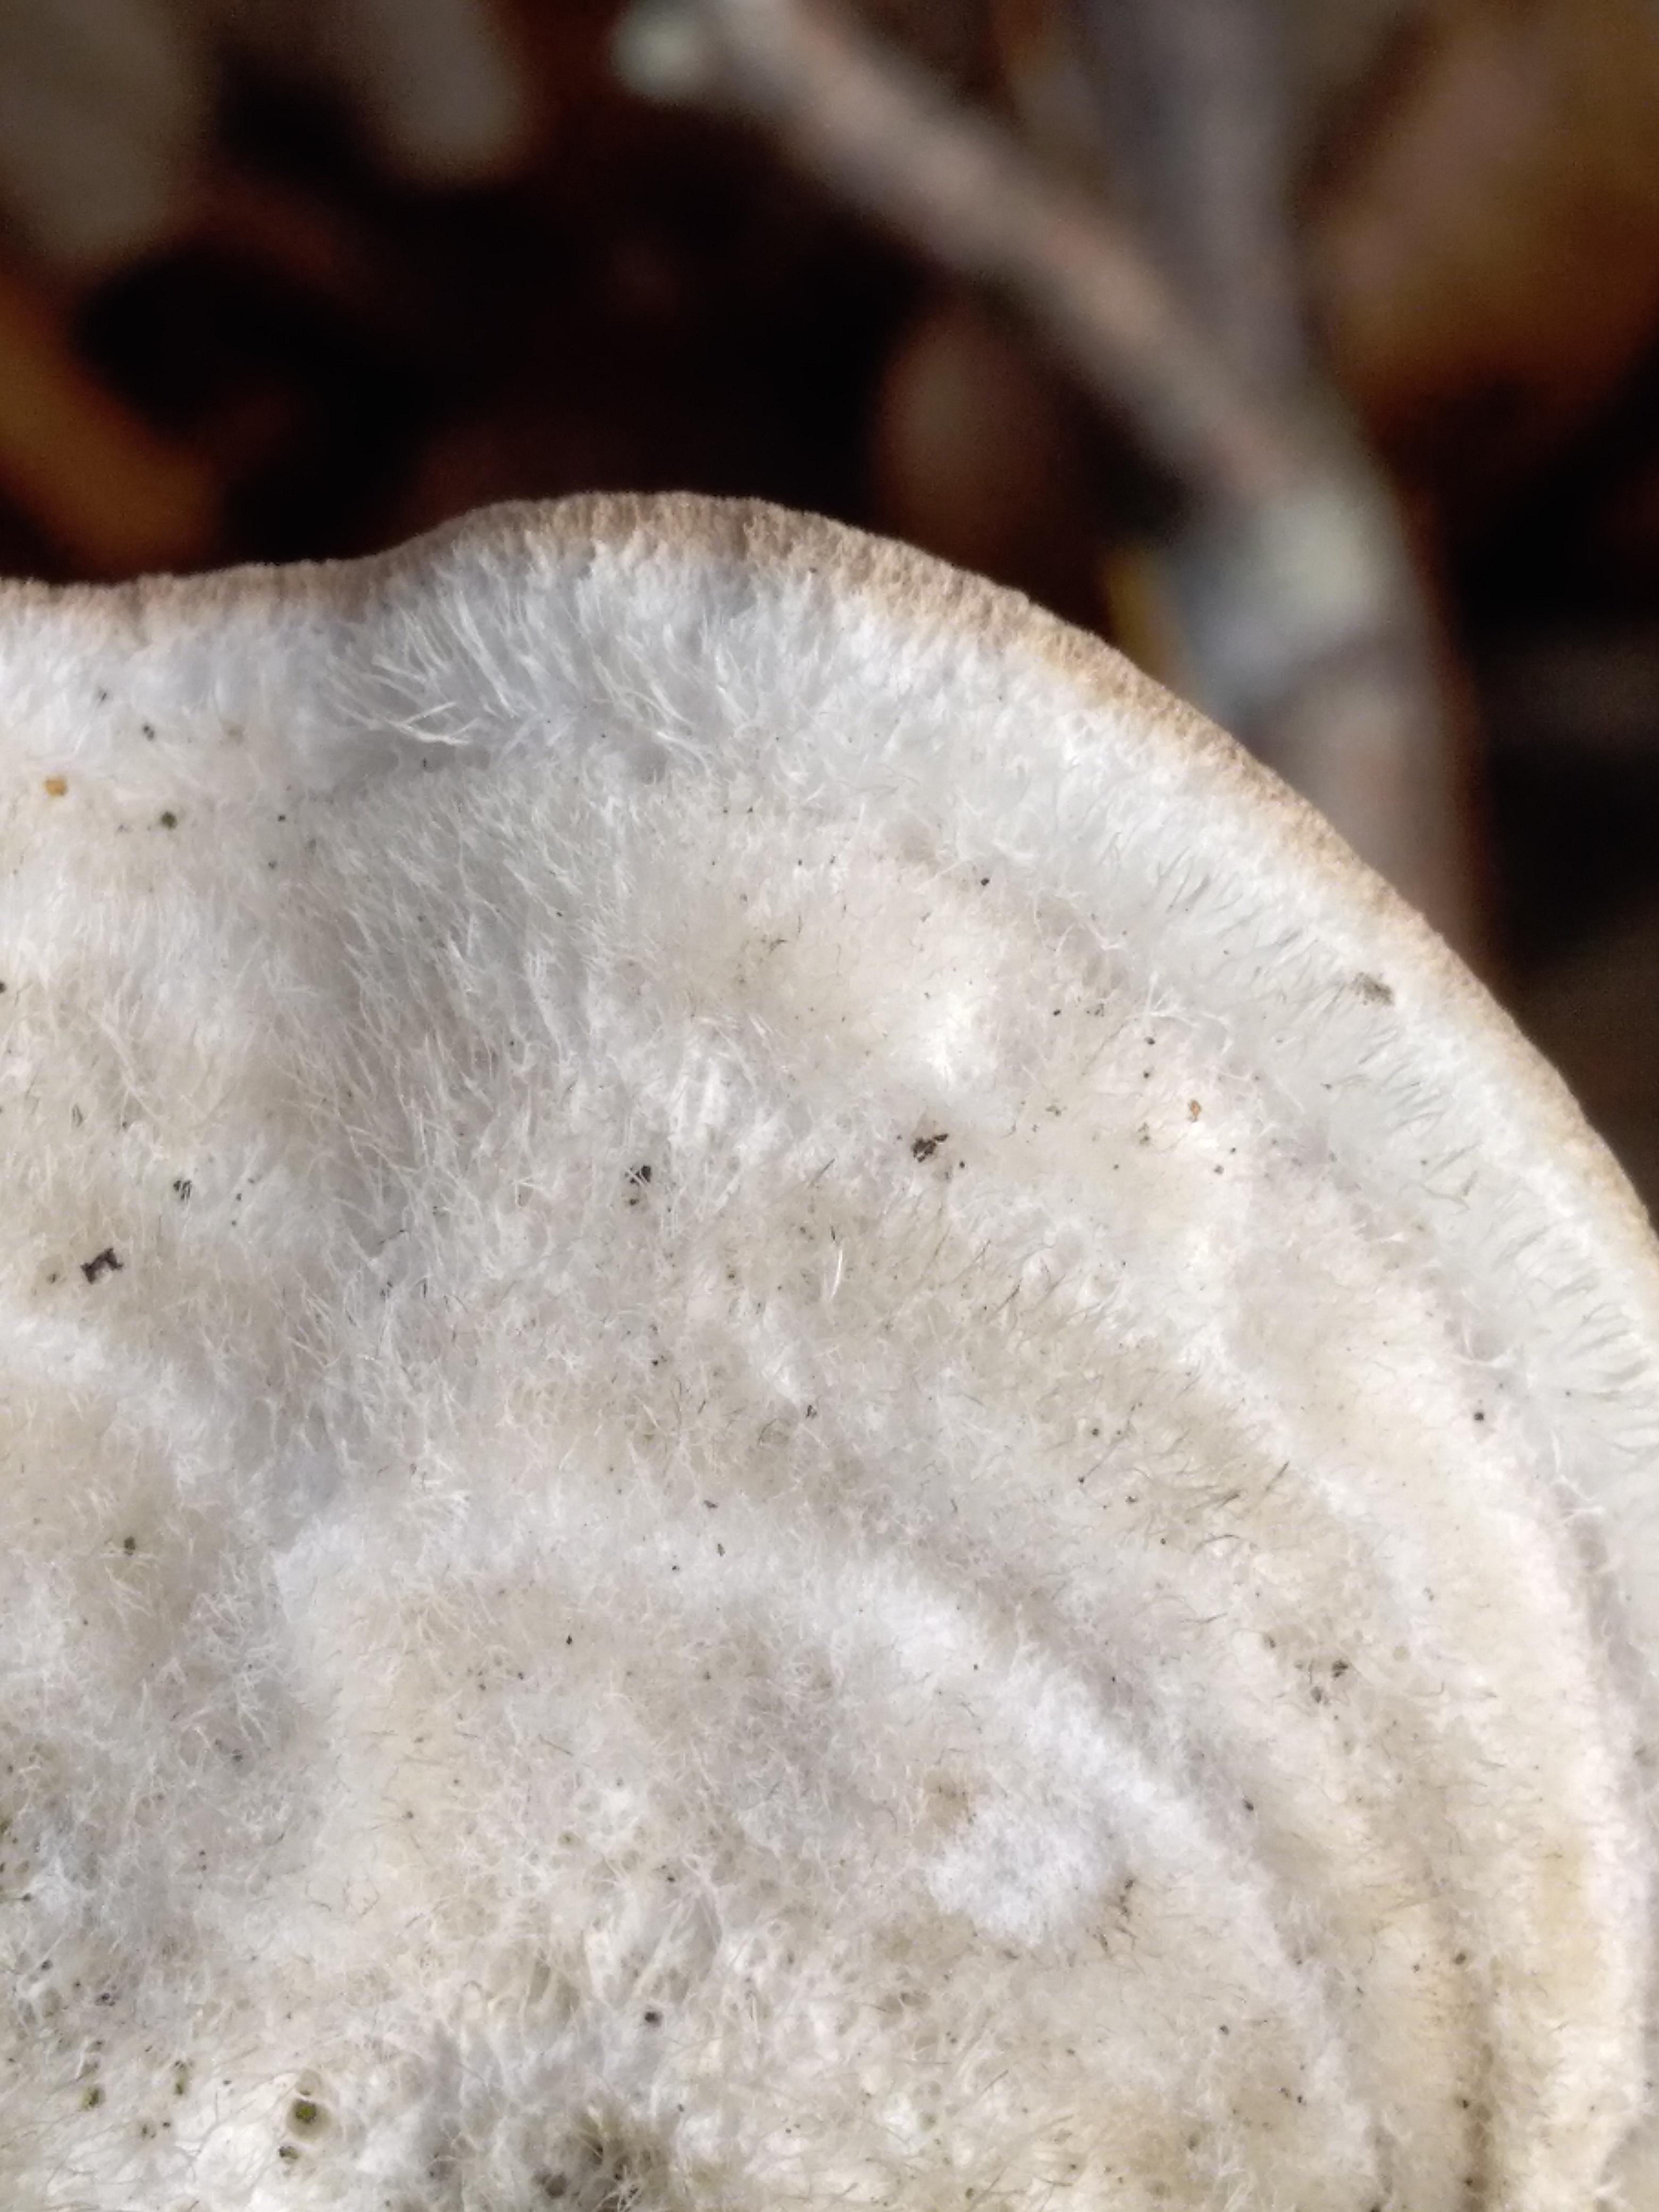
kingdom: Fungi
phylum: Basidiomycota
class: Agaricomycetes
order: Polyporales
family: Polyporaceae
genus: Trametes
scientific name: Trametes hirsuta
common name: håret læderporesvamp
